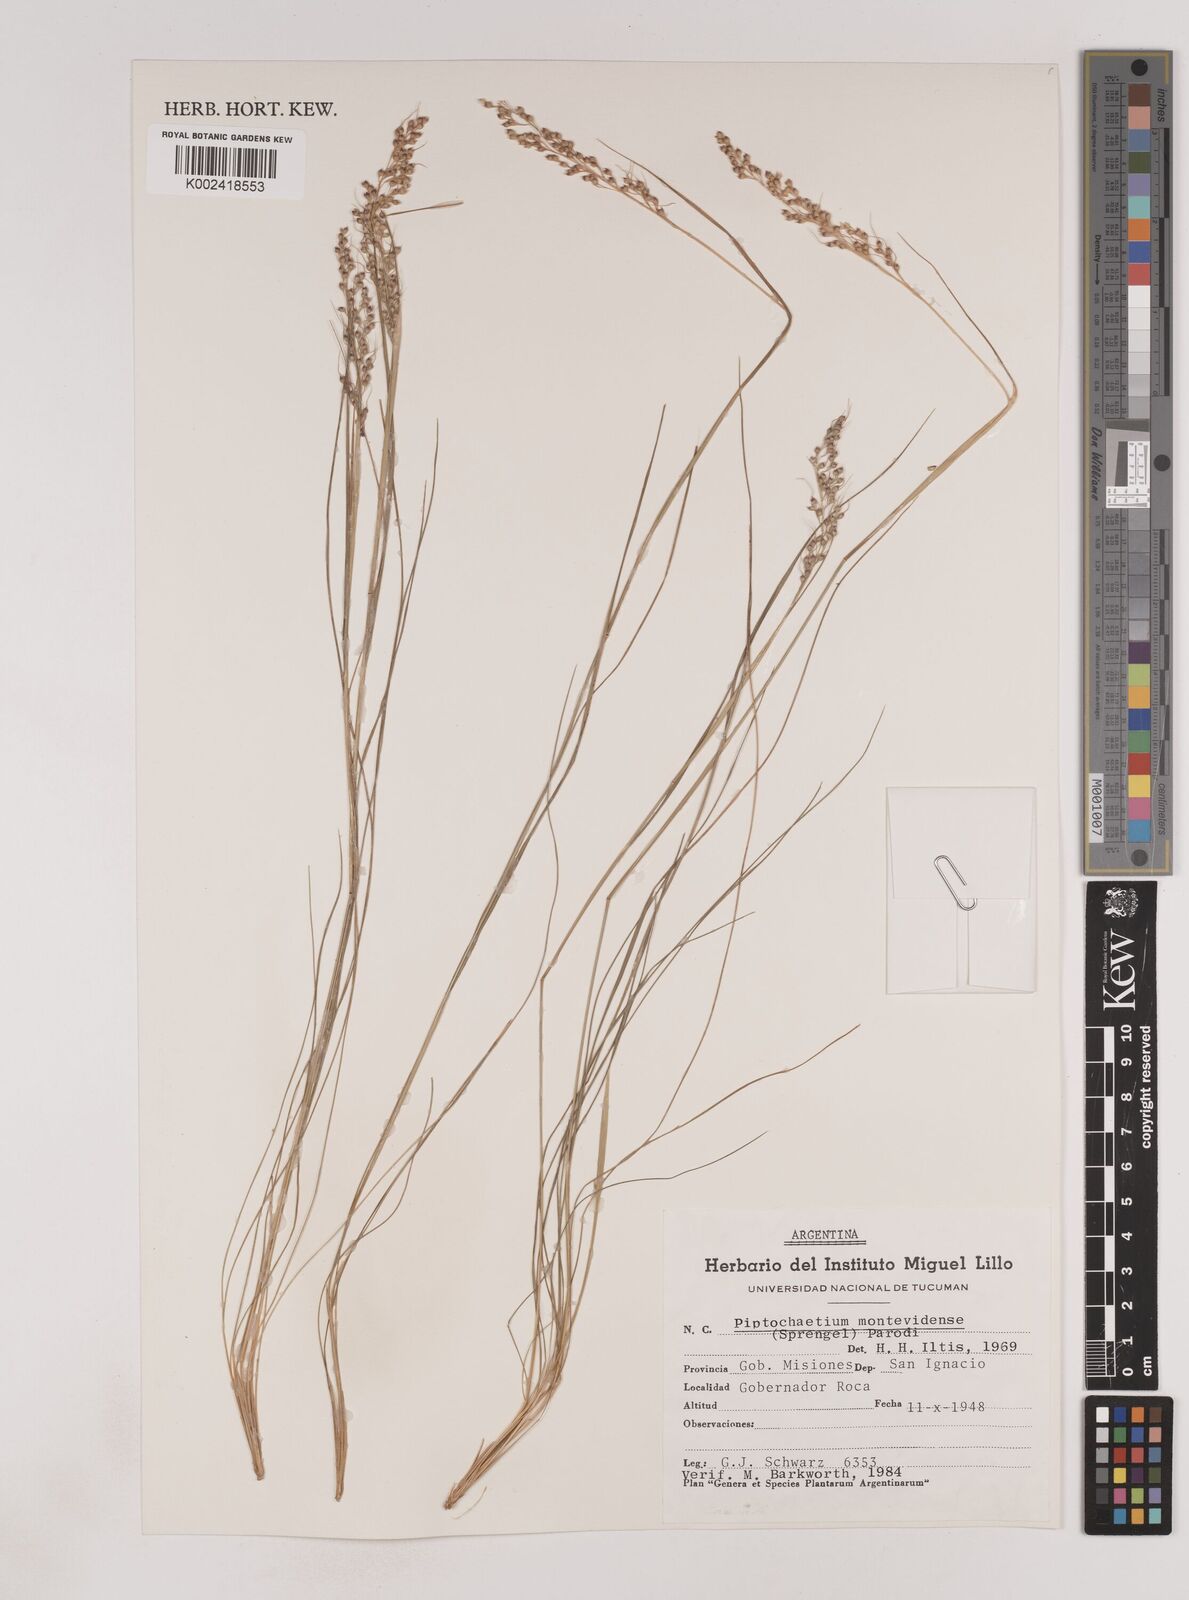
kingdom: Plantae
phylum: Tracheophyta
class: Liliopsida
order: Poales
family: Poaceae
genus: Piptochaetium
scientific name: Piptochaetium montevidense
